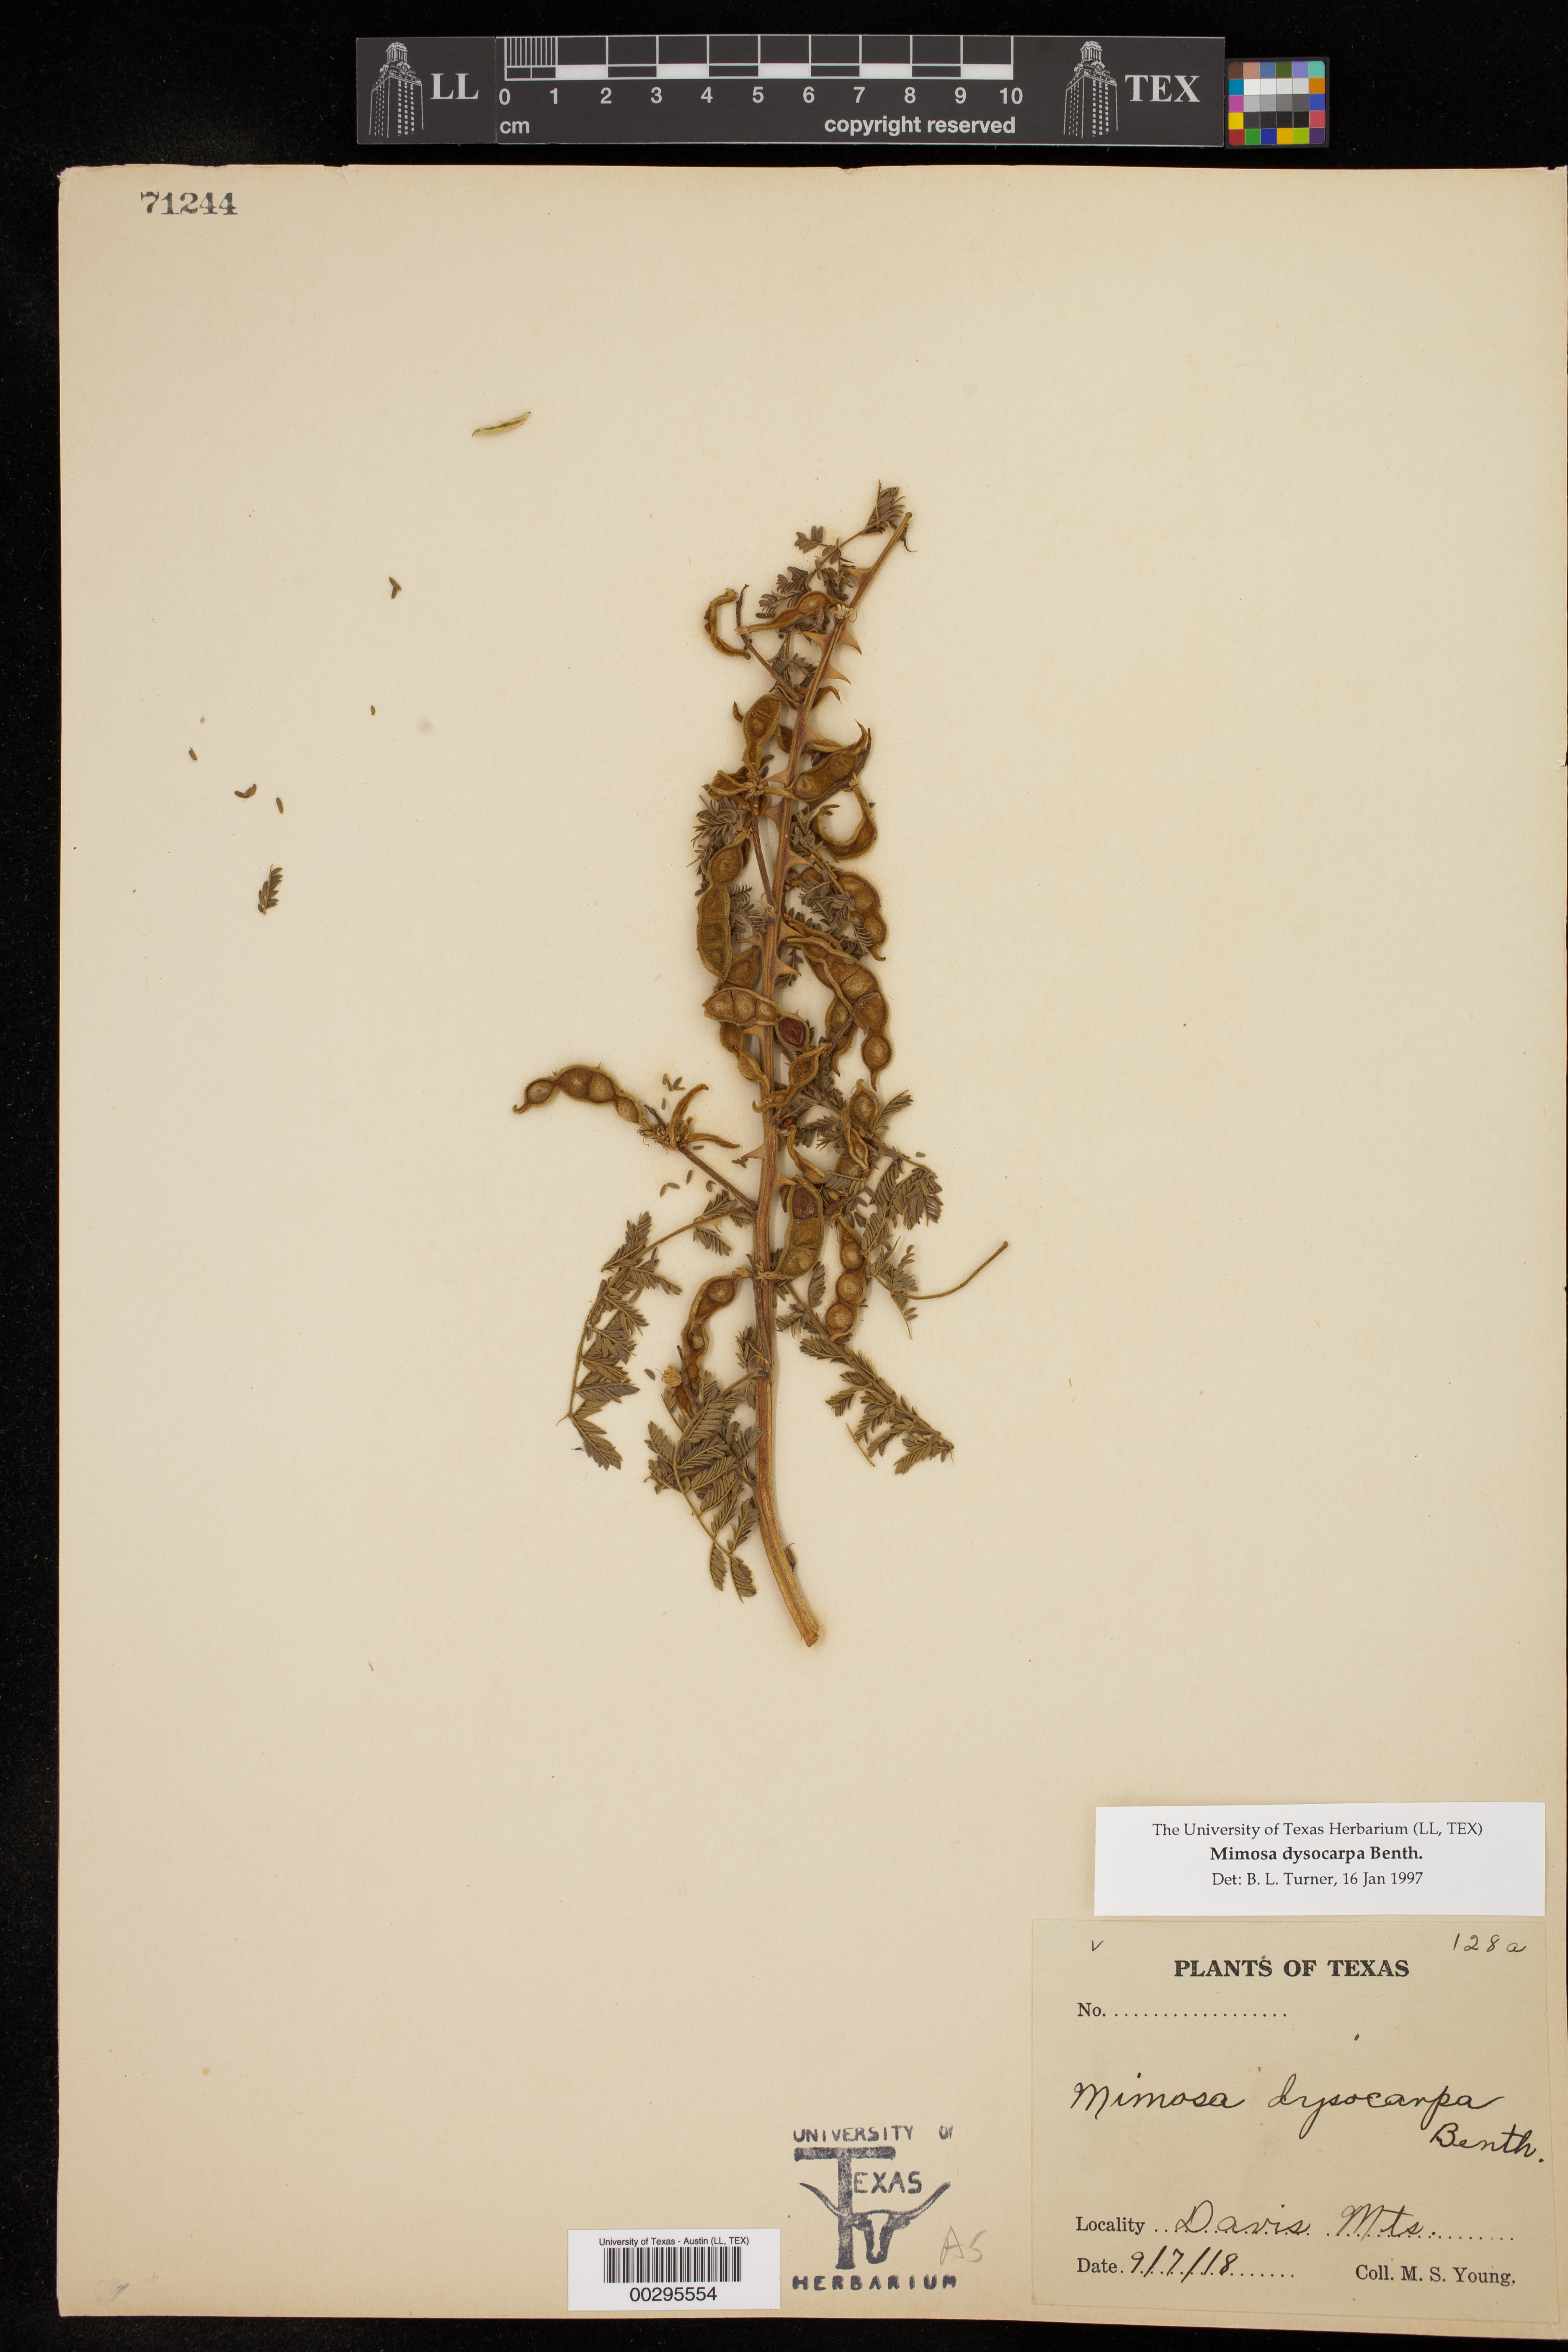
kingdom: Plantae
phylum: Tracheophyta
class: Magnoliopsida
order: Fabales
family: Fabaceae
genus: Mimosa
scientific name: Mimosa dysocarpa
